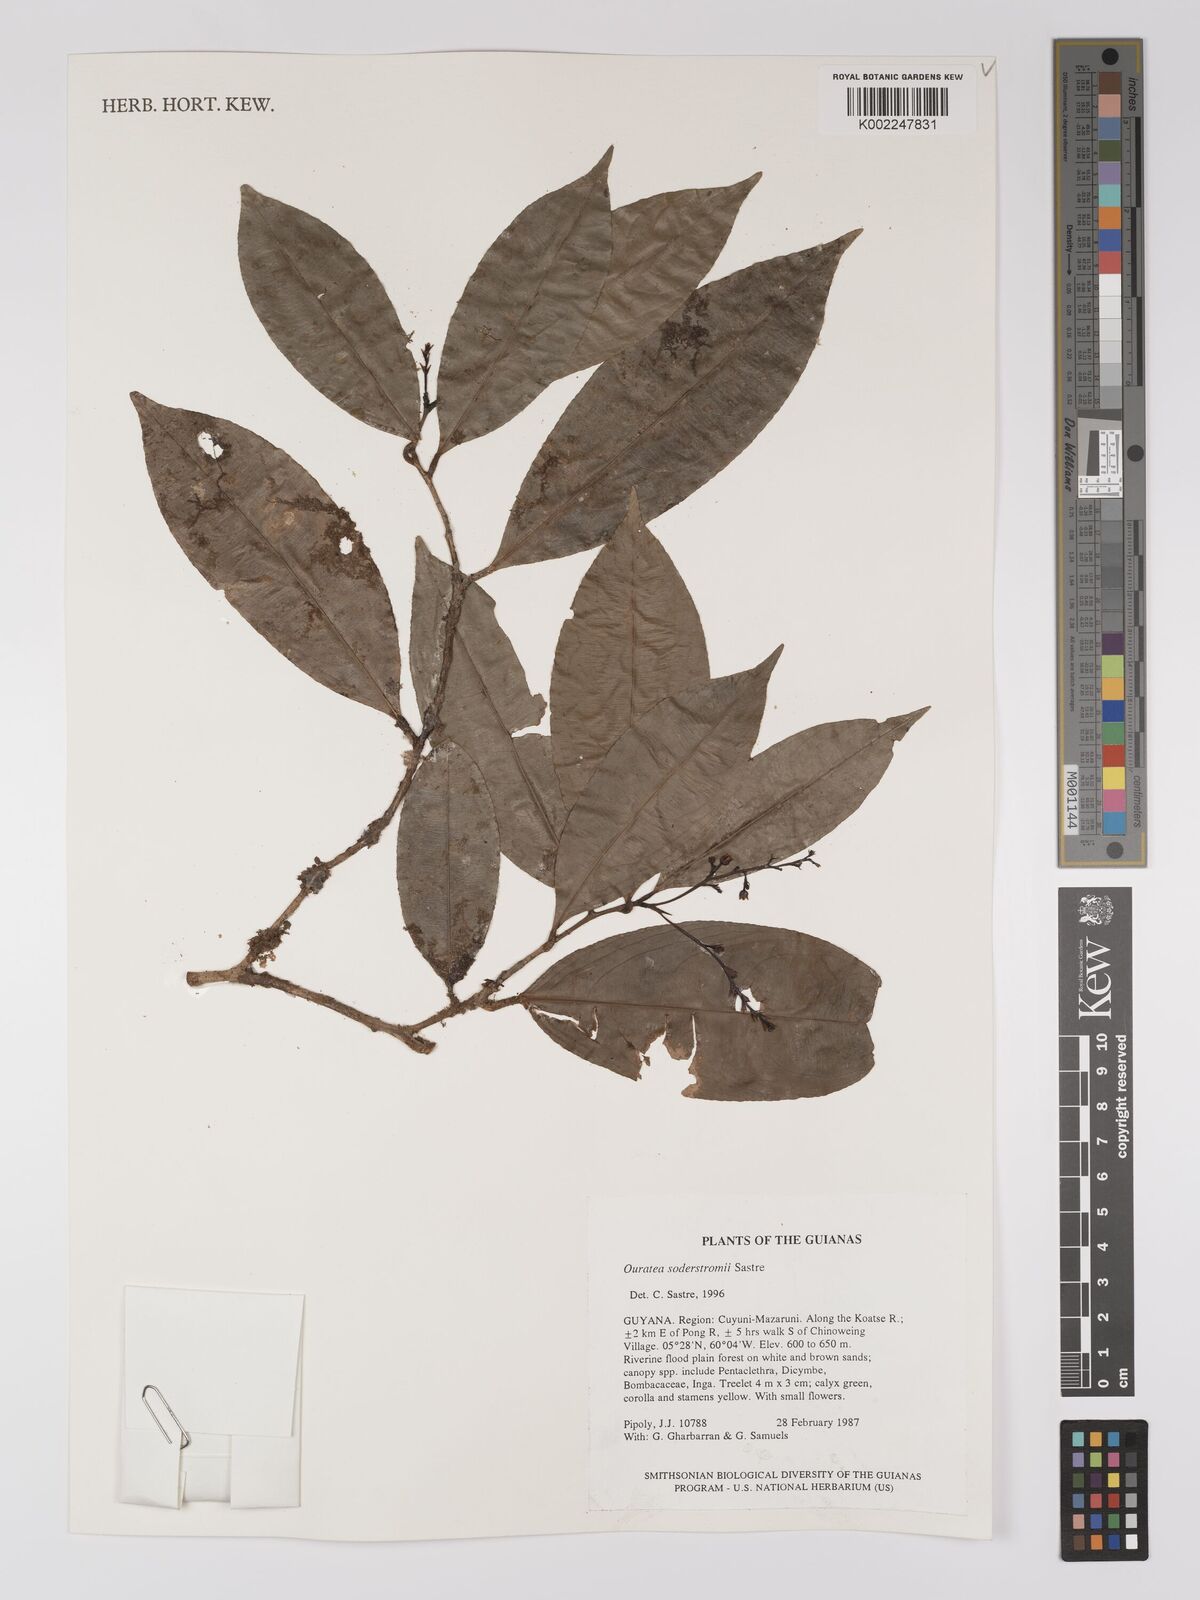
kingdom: Plantae
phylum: Tracheophyta
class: Magnoliopsida
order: Malpighiales
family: Ochnaceae
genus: Ouratea
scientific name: Ouratea soderstromii
